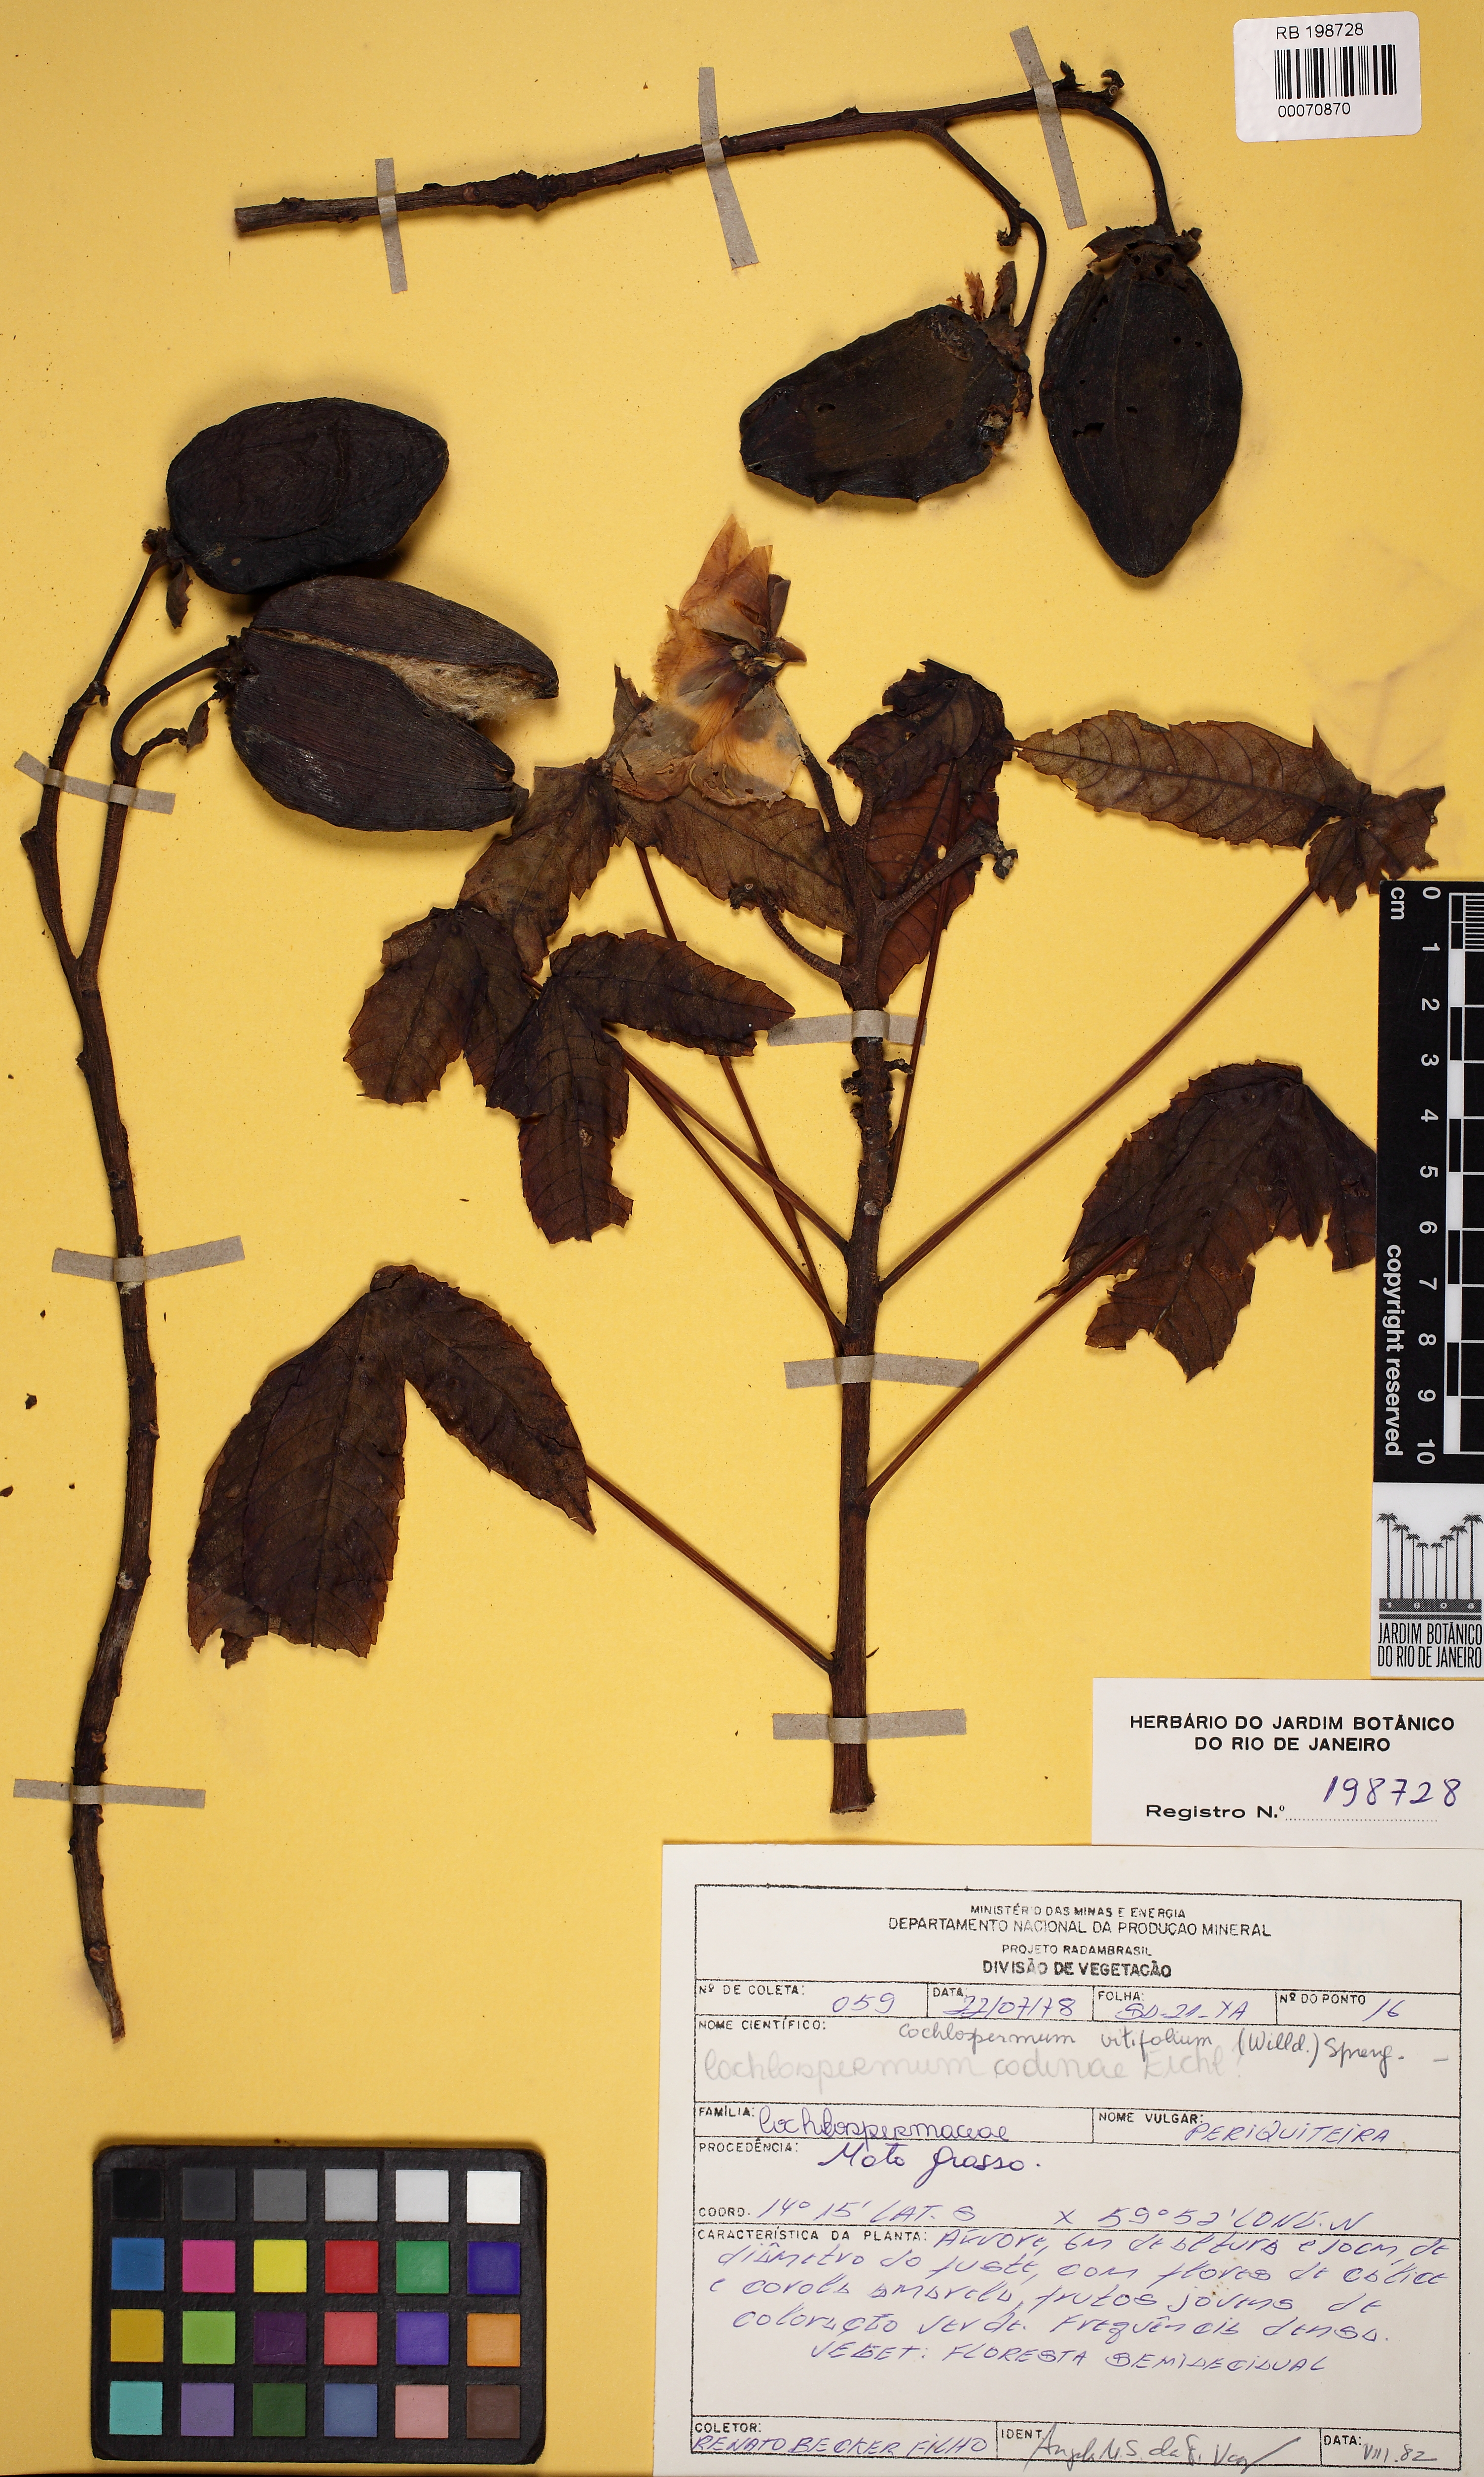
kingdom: Plantae
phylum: Tracheophyta
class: Magnoliopsida
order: Malvales
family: Cochlospermaceae
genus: Cochlospermum
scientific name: Cochlospermum vitifolium
